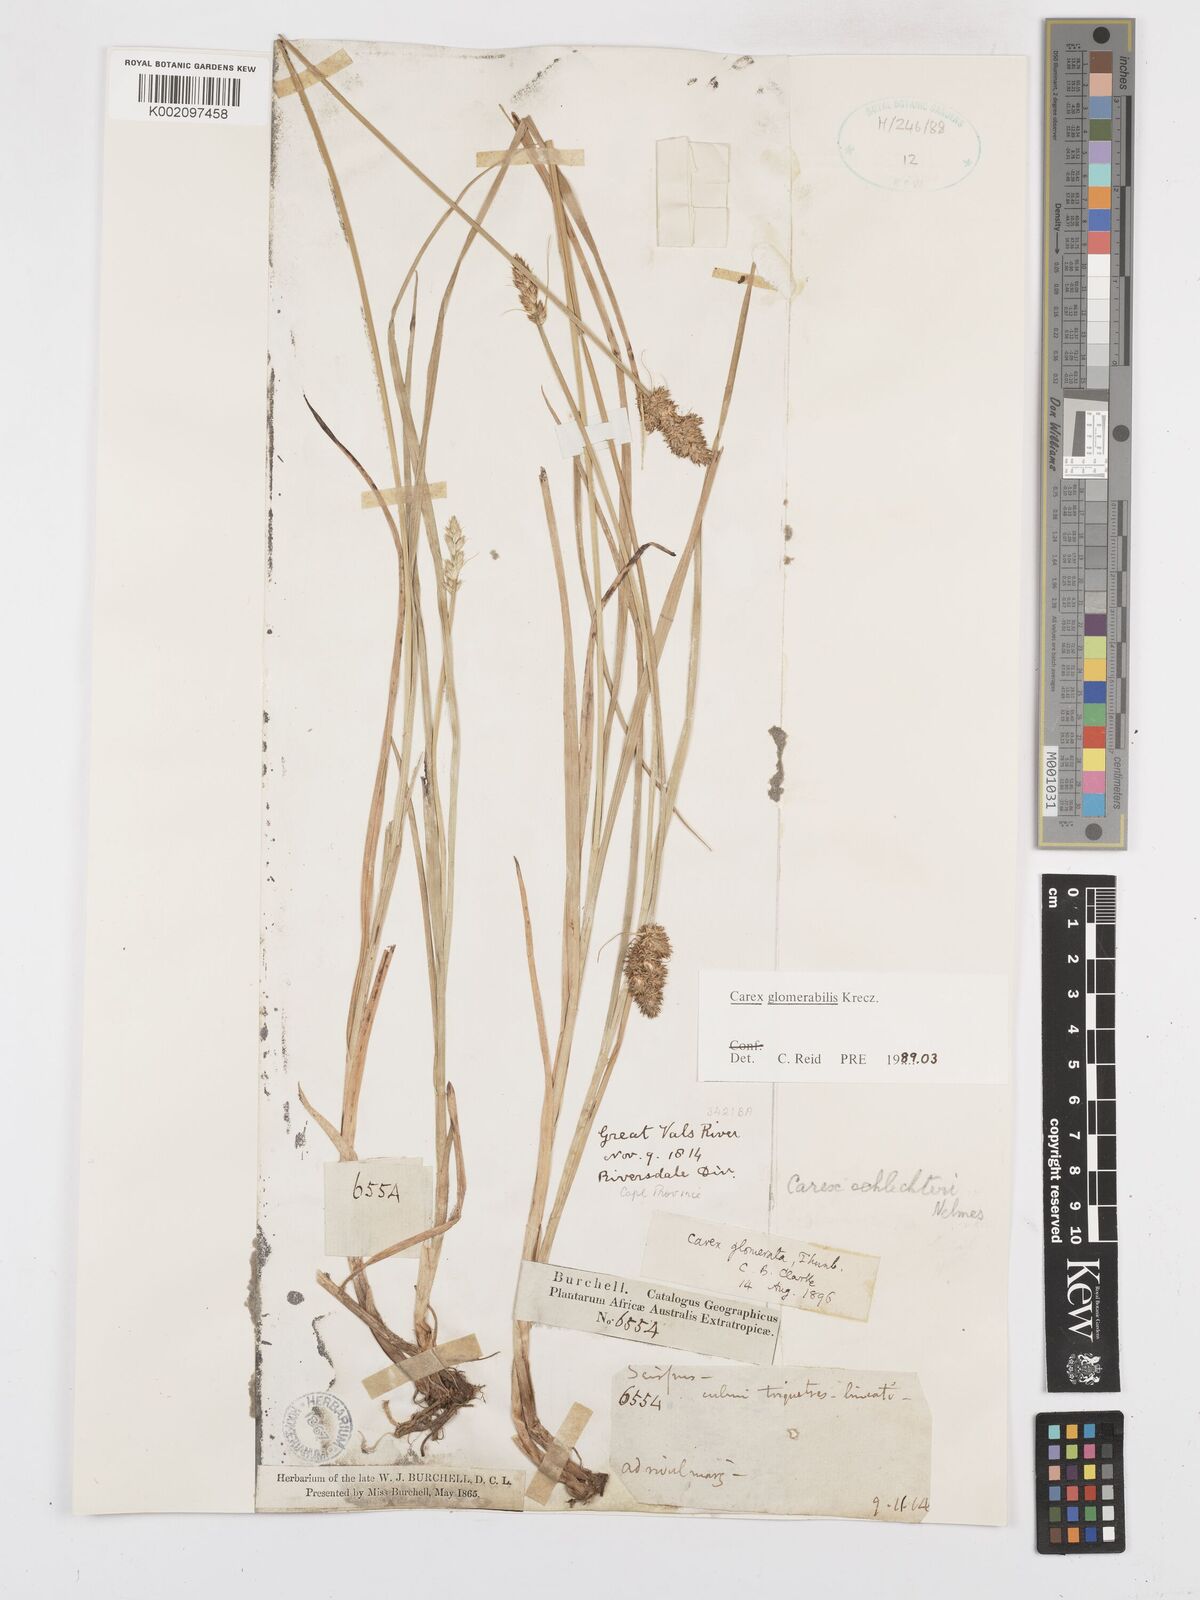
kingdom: Plantae
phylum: Tracheophyta
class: Liliopsida
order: Poales
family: Cyperaceae
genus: Carex
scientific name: Carex glomerata
